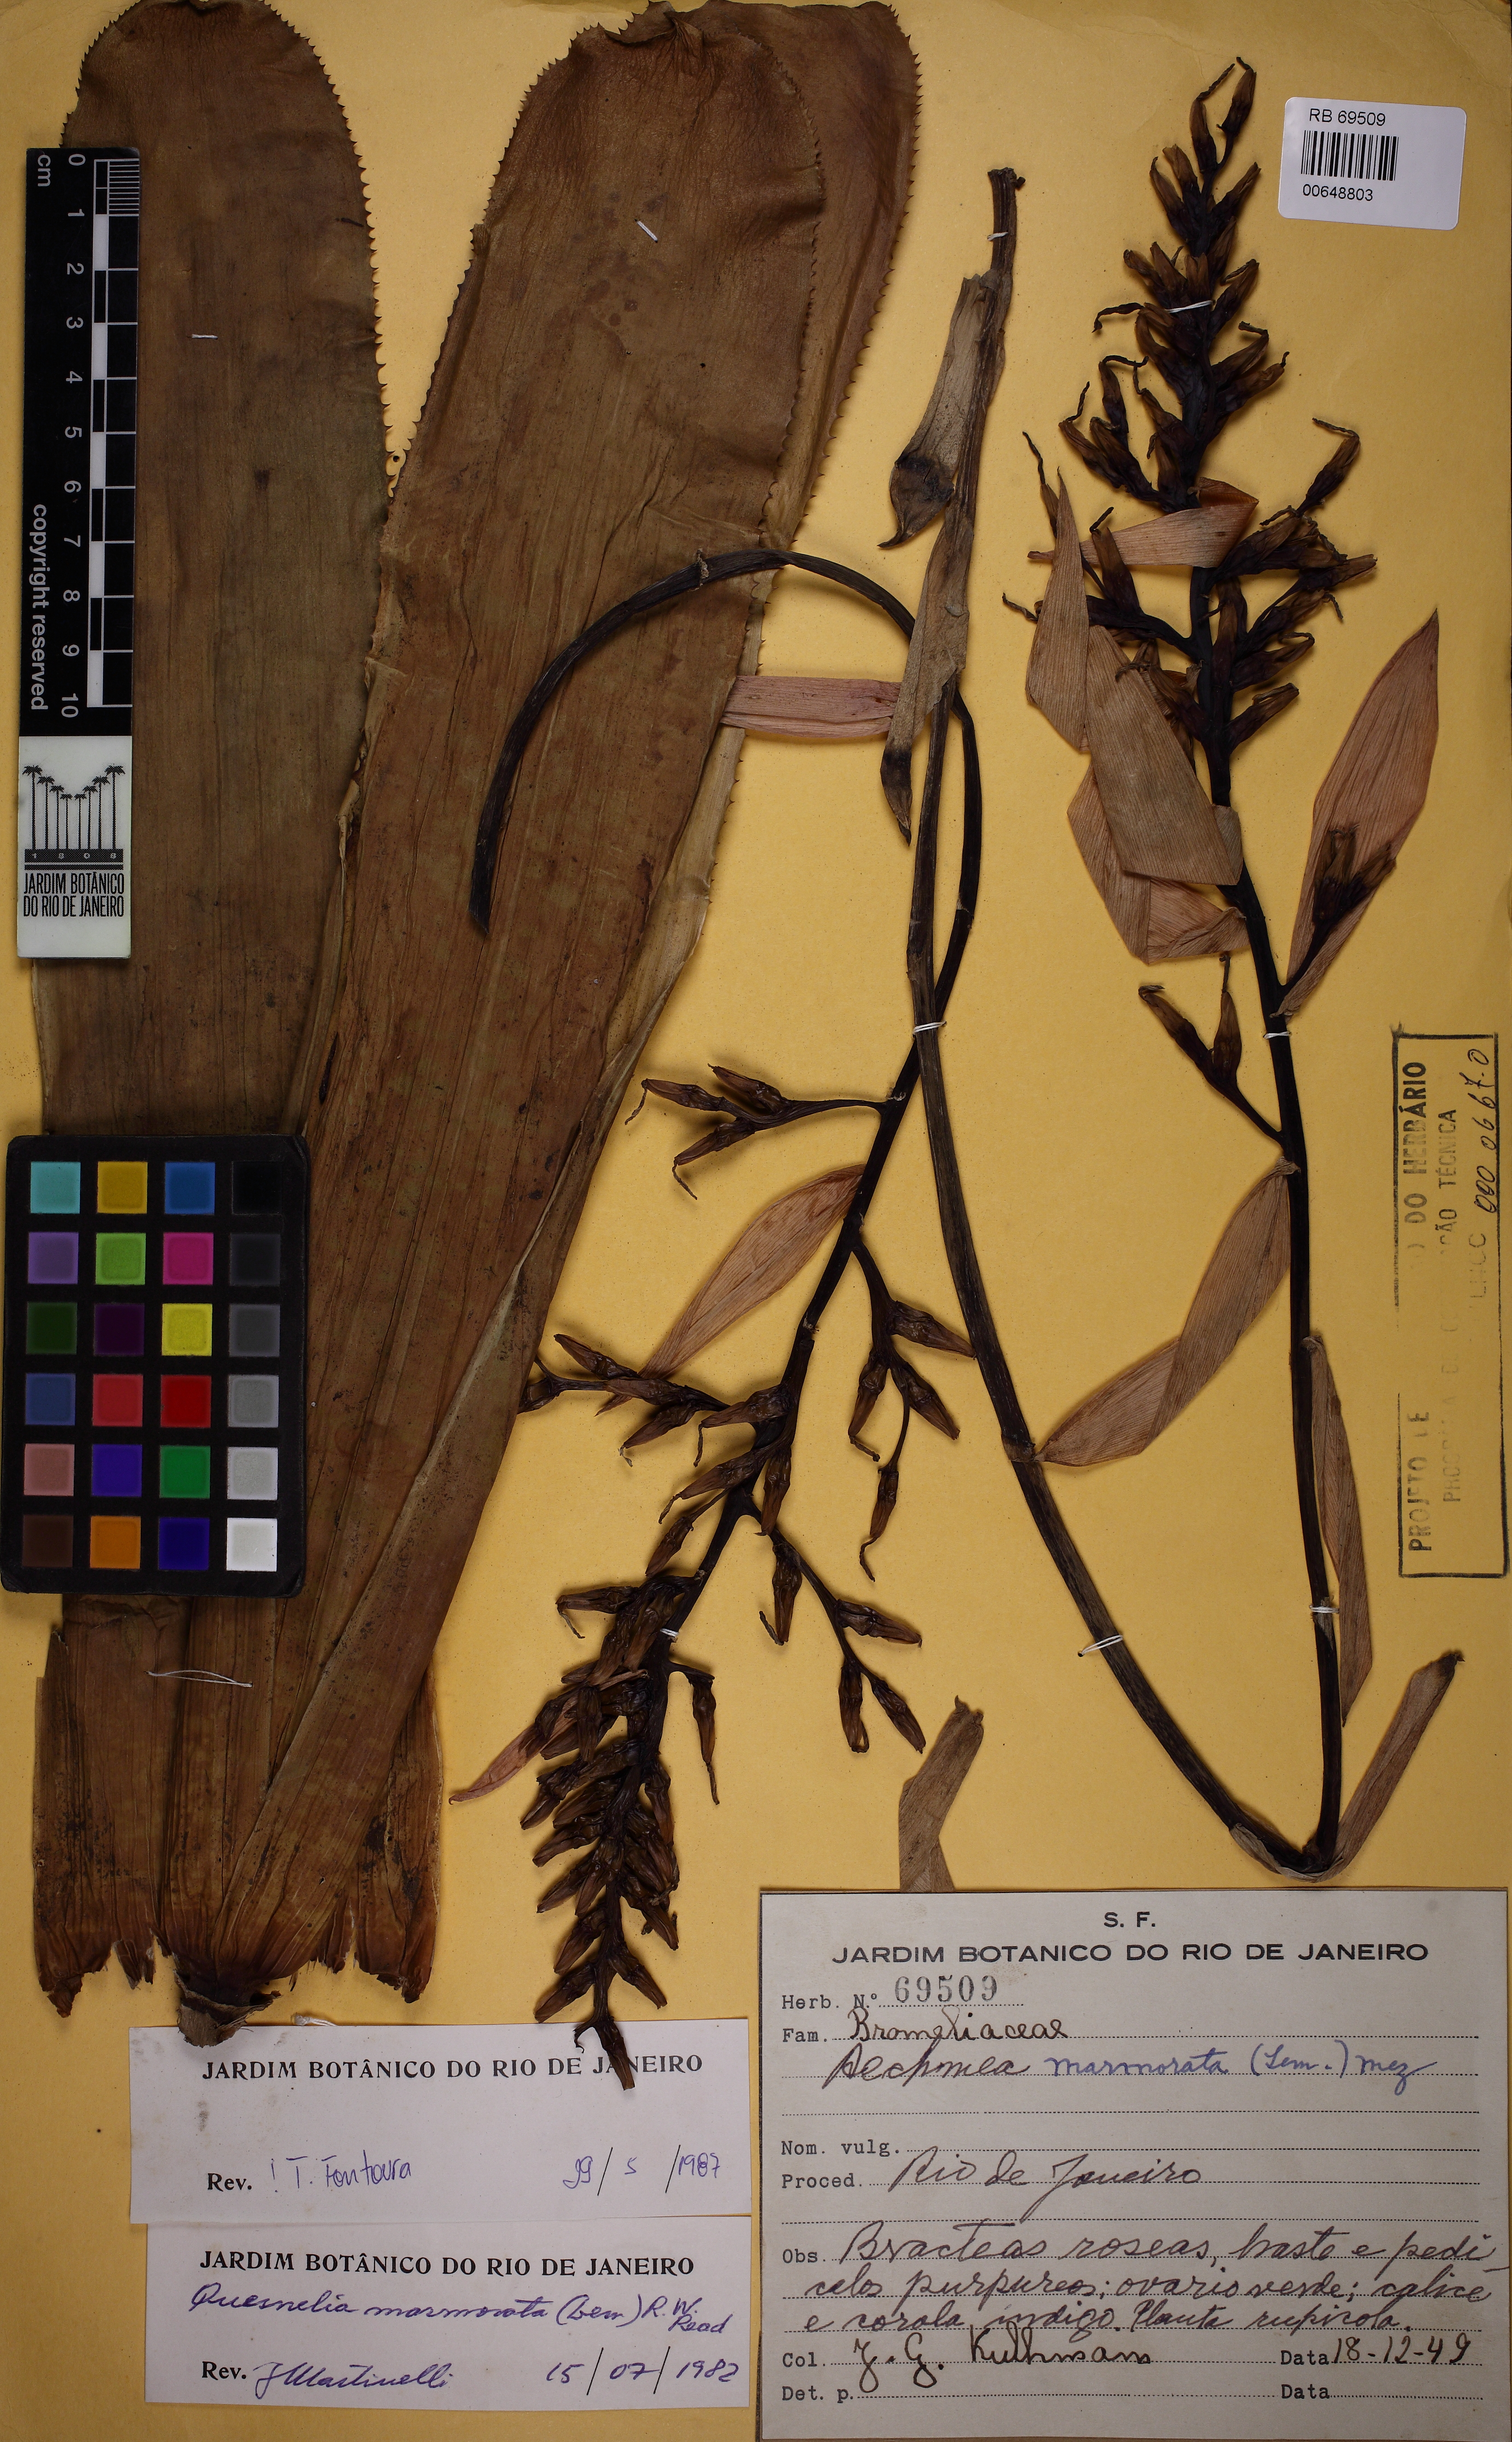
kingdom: Plantae
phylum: Tracheophyta
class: Liliopsida
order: Poales
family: Bromeliaceae
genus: Quesnelia
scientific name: Quesnelia marmorata
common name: Grecian urnplant
